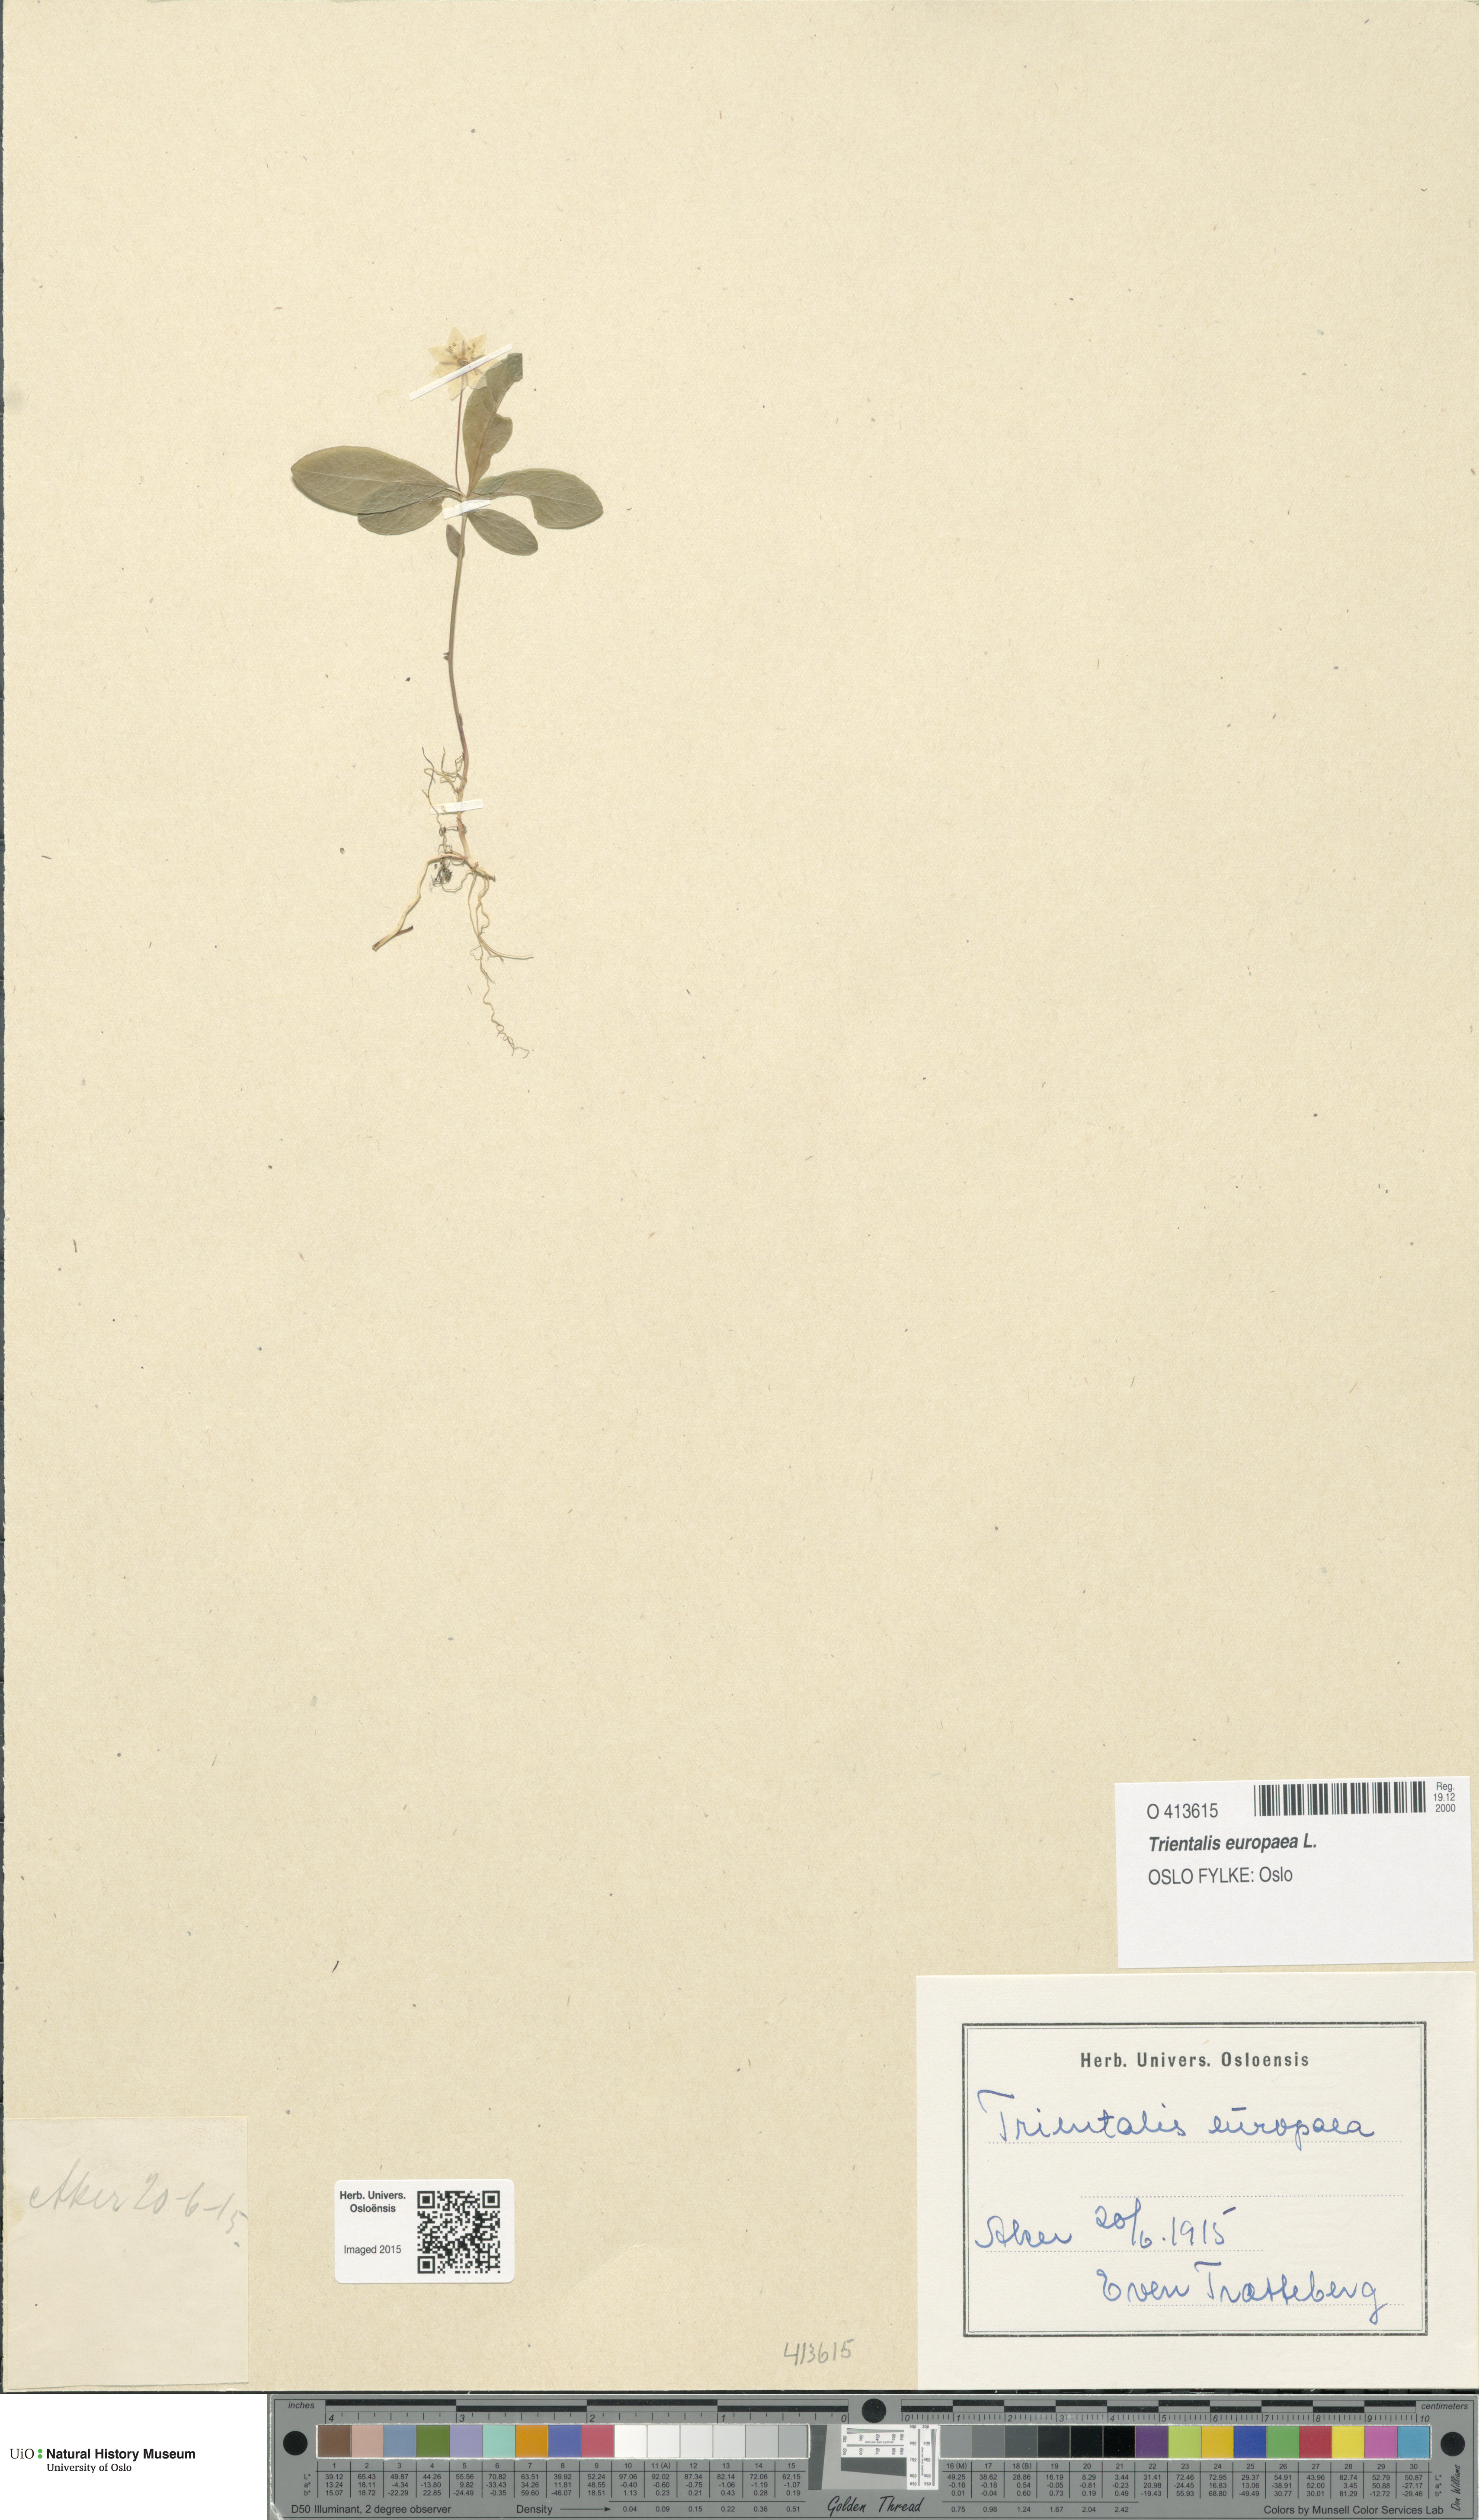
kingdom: Plantae
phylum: Tracheophyta
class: Magnoliopsida
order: Ericales
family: Primulaceae
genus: Lysimachia
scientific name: Lysimachia europaea
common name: Arctic starflower
